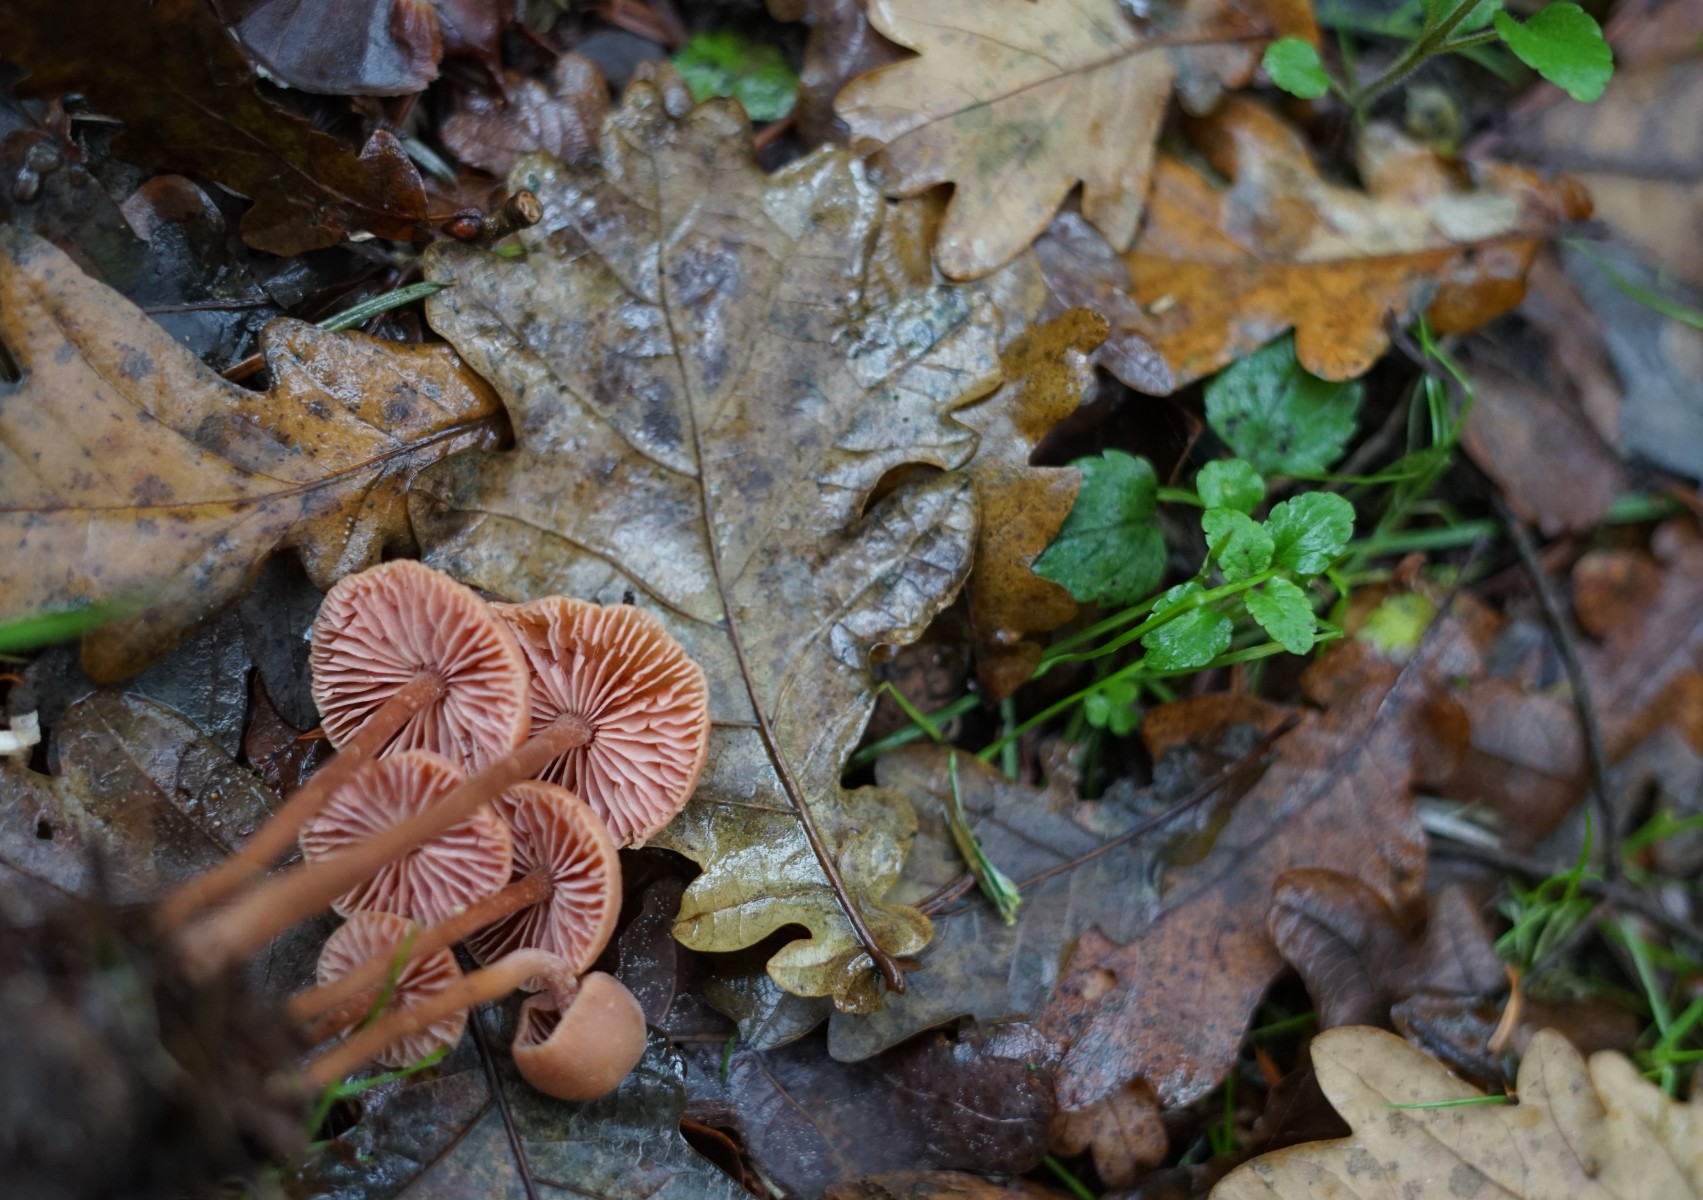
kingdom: Fungi
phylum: Basidiomycota
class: Agaricomycetes
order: Agaricales
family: Hydnangiaceae
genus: Laccaria
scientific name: Laccaria laccata
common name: rød ametysthat
